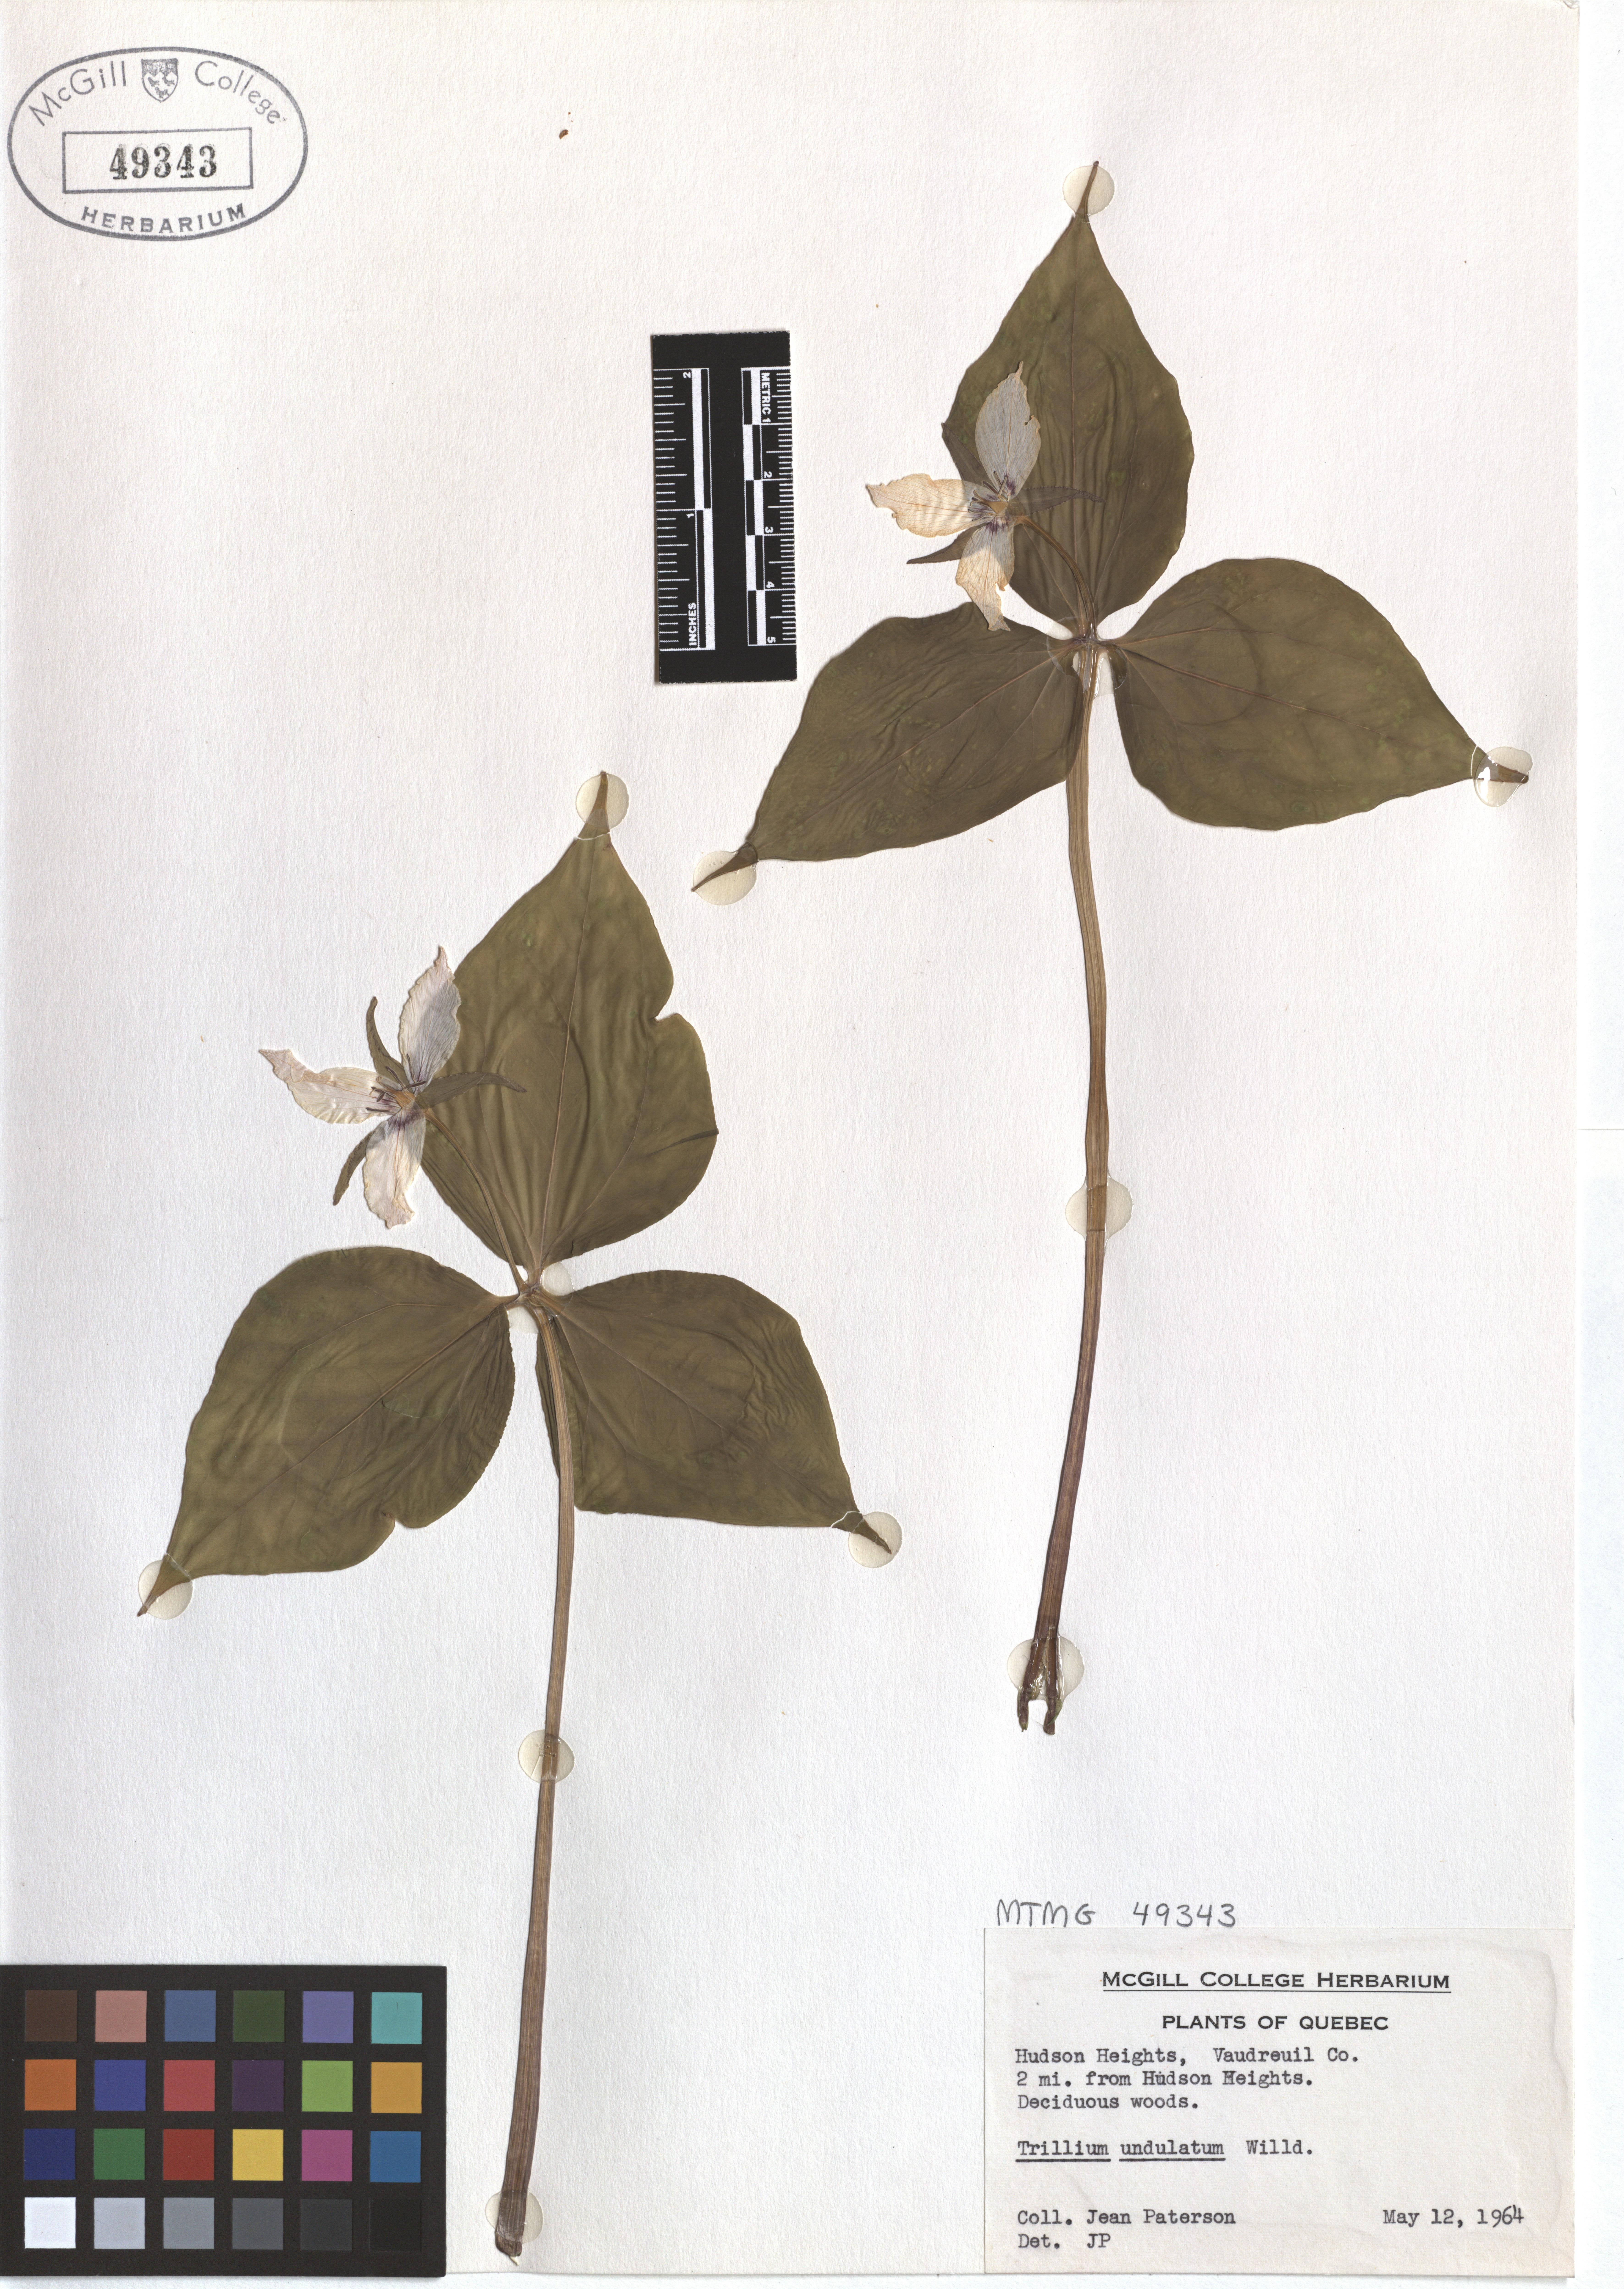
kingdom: Plantae
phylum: Tracheophyta
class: Liliopsida
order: Liliales
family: Melanthiaceae
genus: Trillium
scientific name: Trillium undulatum
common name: Paint trillium
